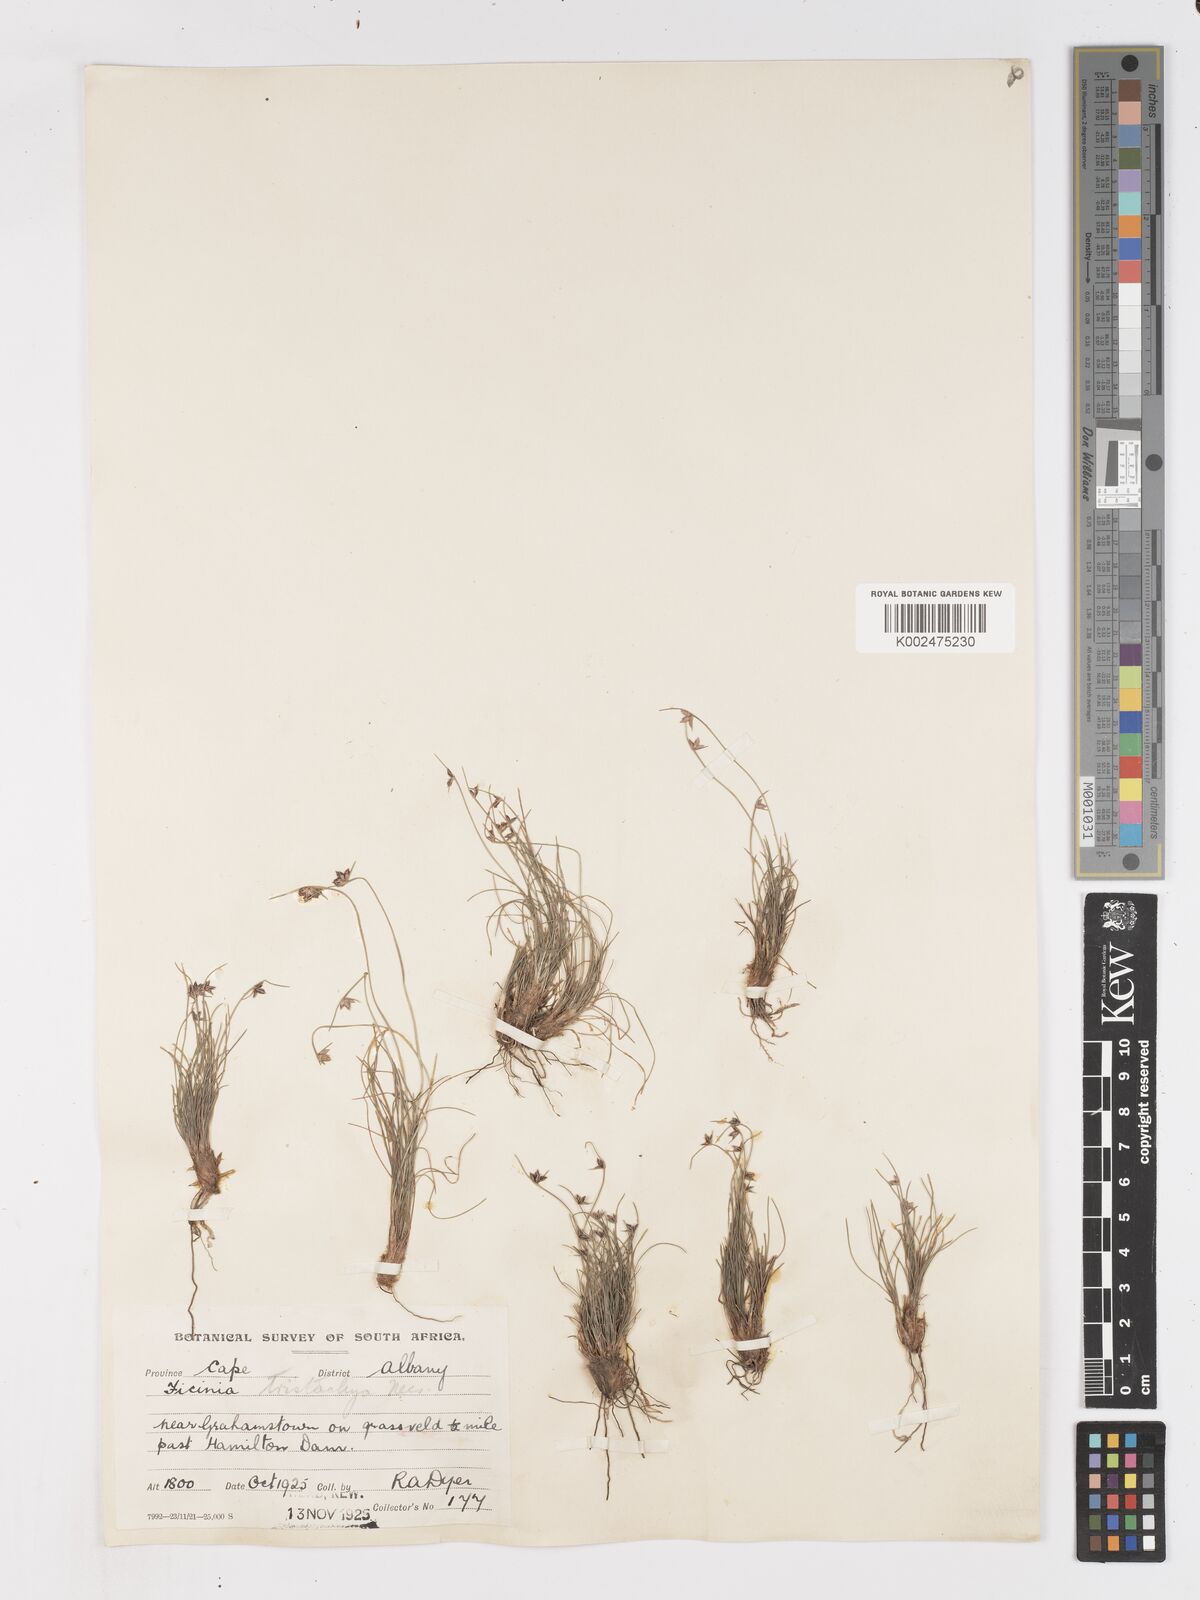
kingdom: Plantae
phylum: Tracheophyta
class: Liliopsida
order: Poales
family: Cyperaceae
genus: Ficinia
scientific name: Ficinia tristachya
